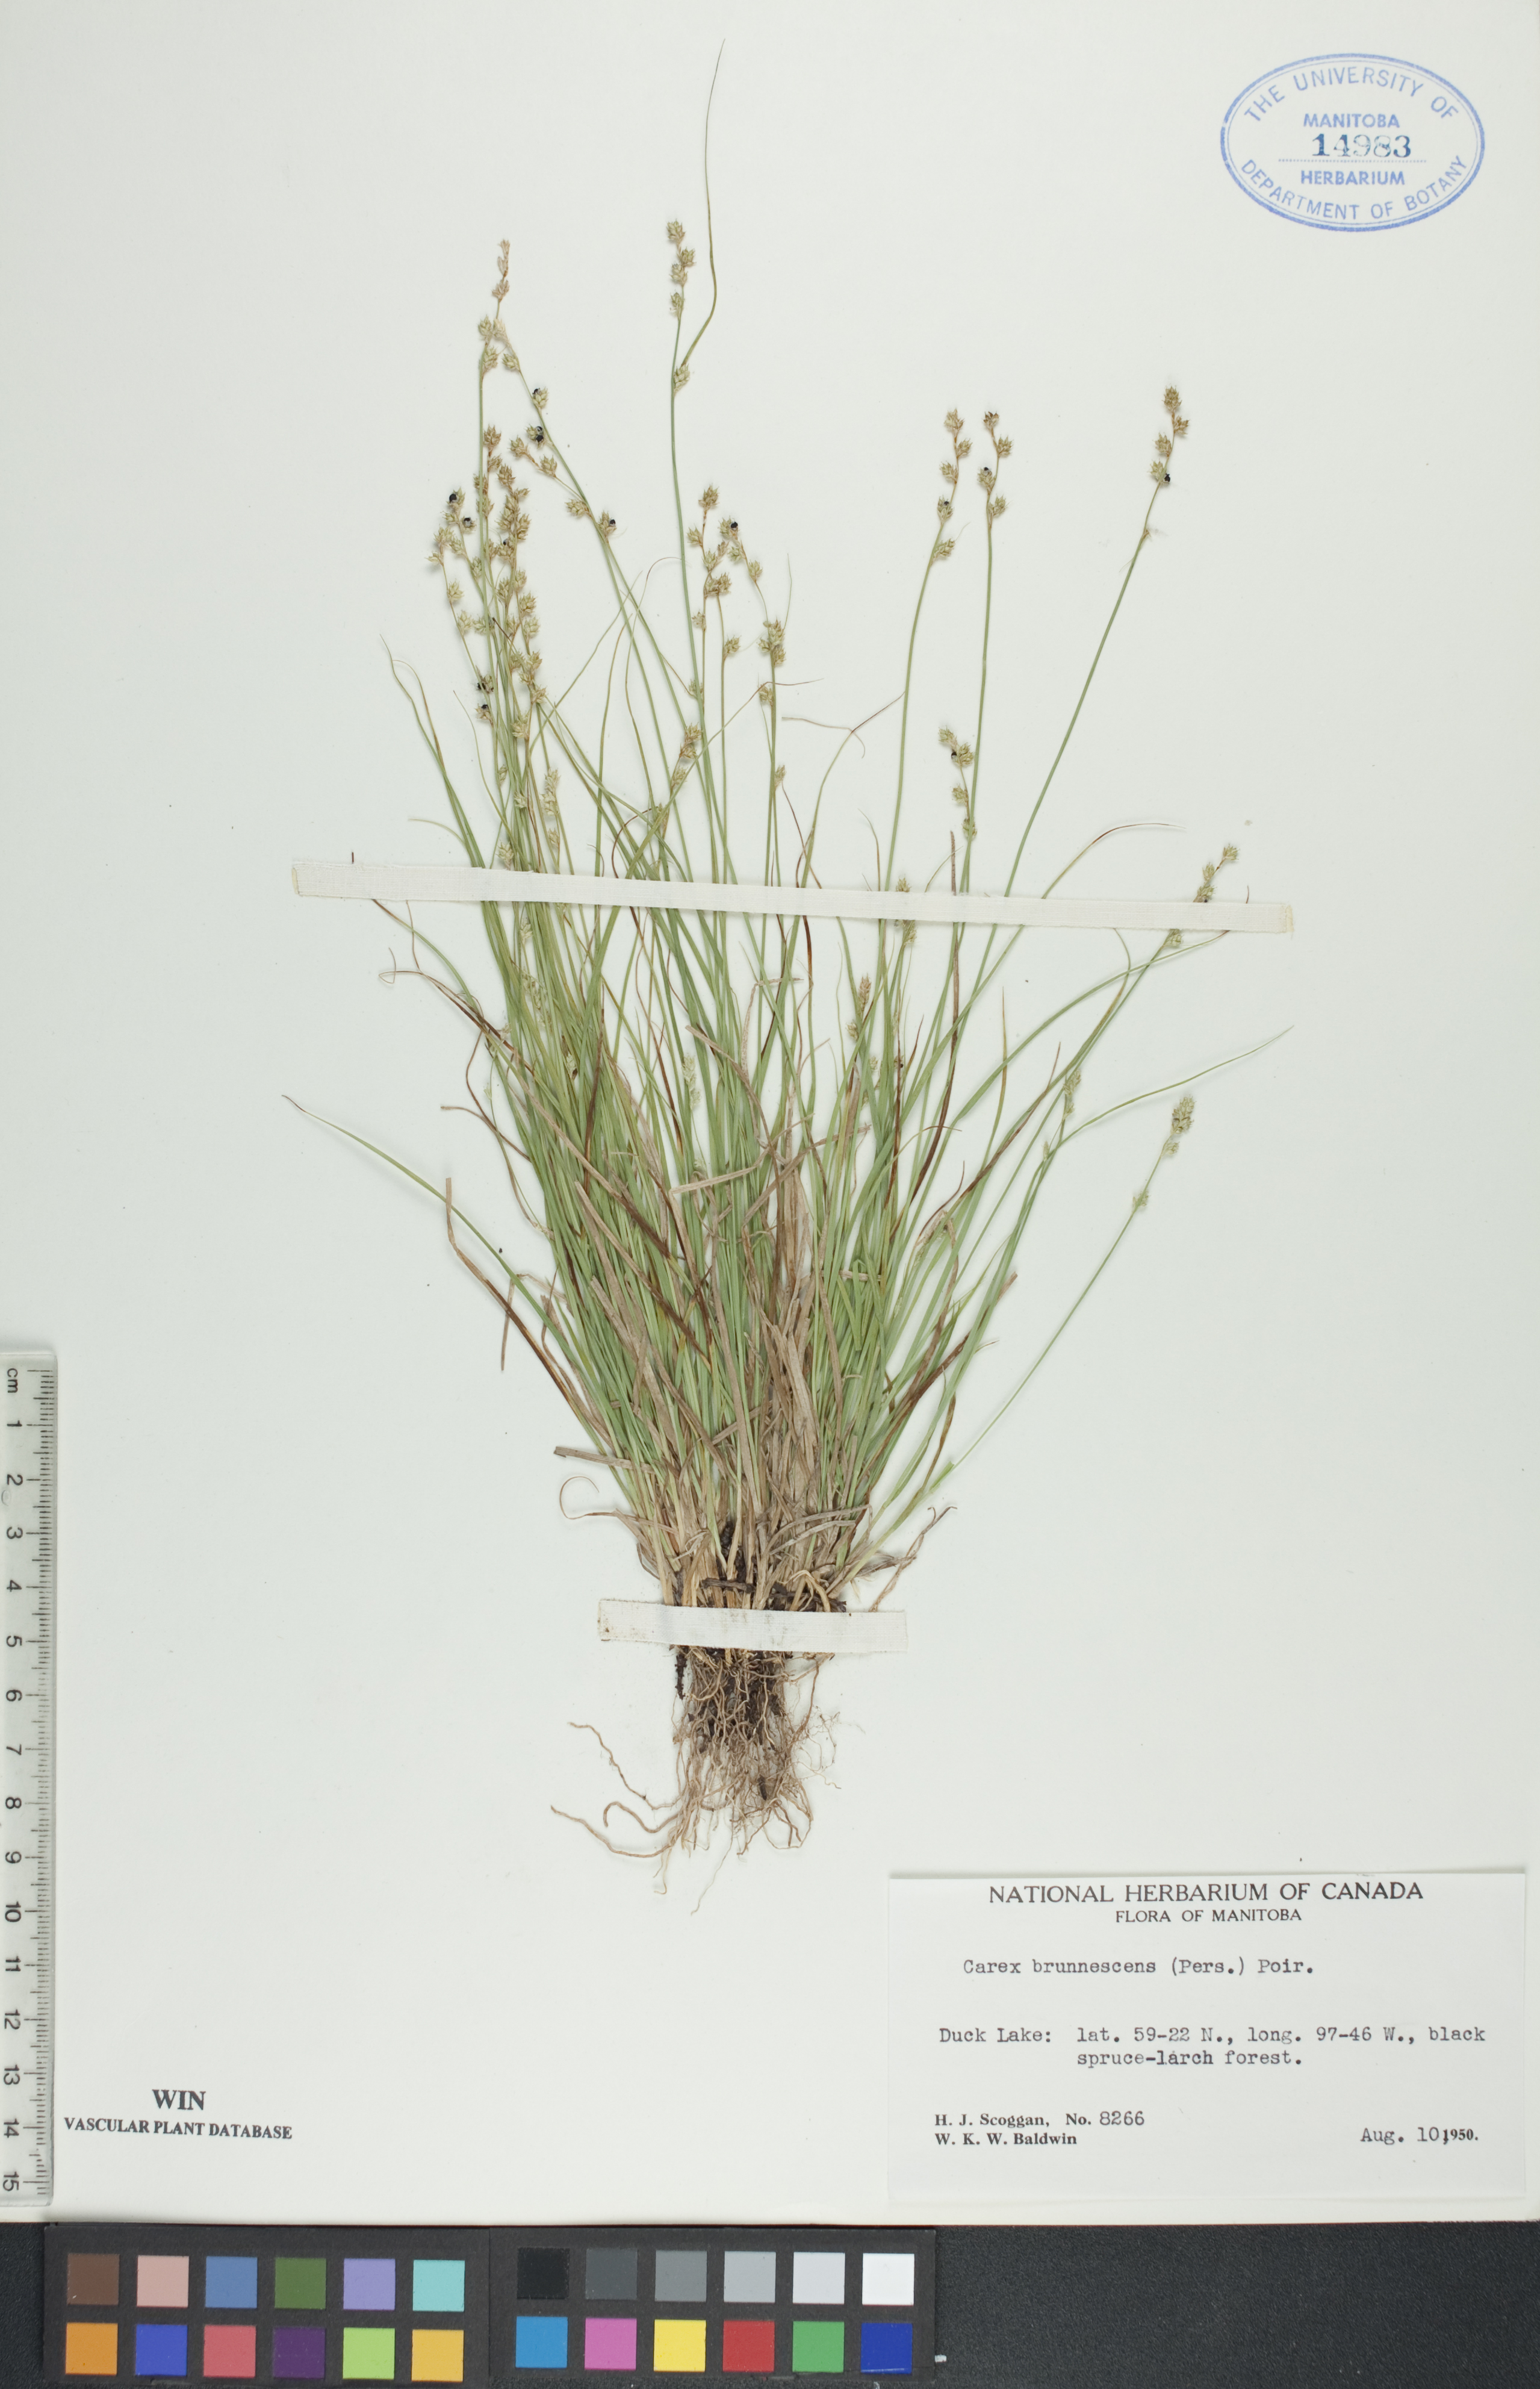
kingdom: Plantae
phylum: Tracheophyta
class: Liliopsida
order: Poales
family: Cyperaceae
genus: Carex
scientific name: Carex brunnescens
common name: Brown sedge
